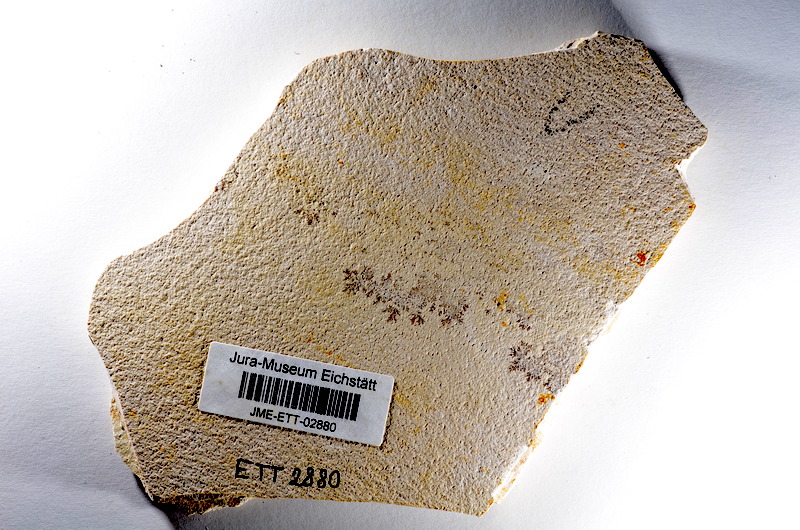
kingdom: Animalia
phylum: Chordata
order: Salmoniformes
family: Orthogonikleithridae
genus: Orthogonikleithrus
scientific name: Orthogonikleithrus hoelli
